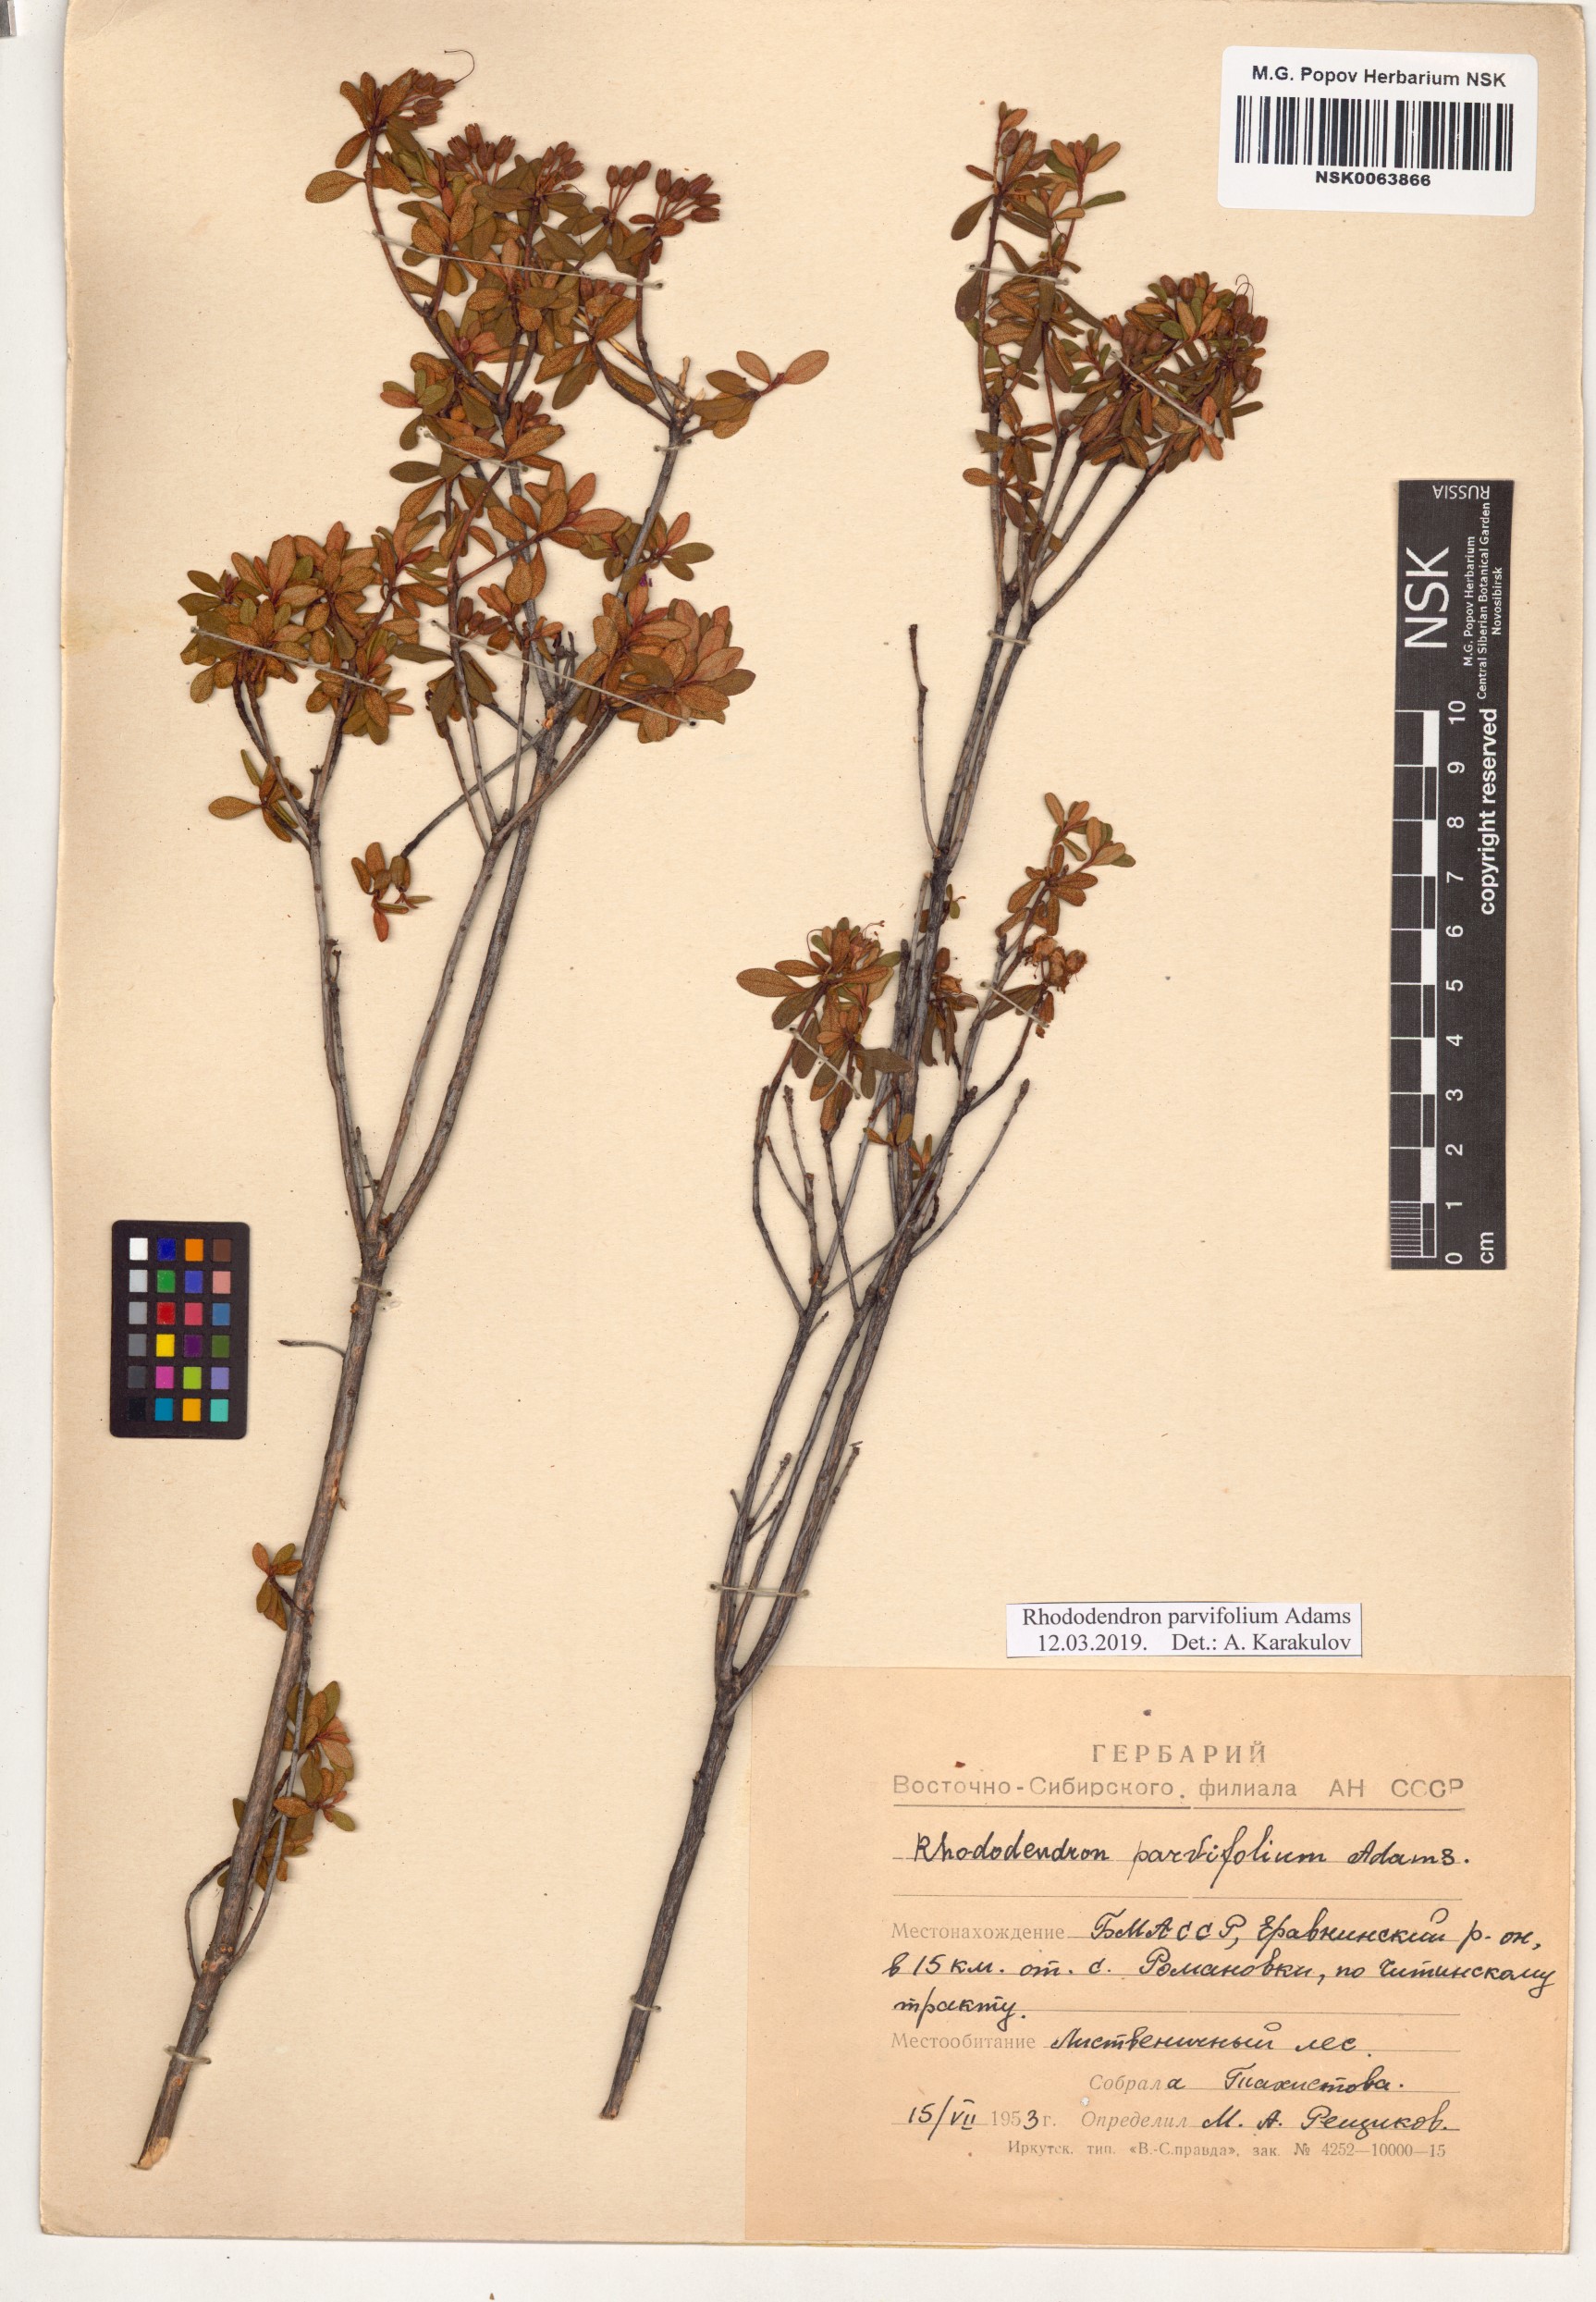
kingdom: Plantae
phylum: Tracheophyta
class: Magnoliopsida
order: Ericales
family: Ericaceae
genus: Rhododendron
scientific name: Rhododendron parvifolium
